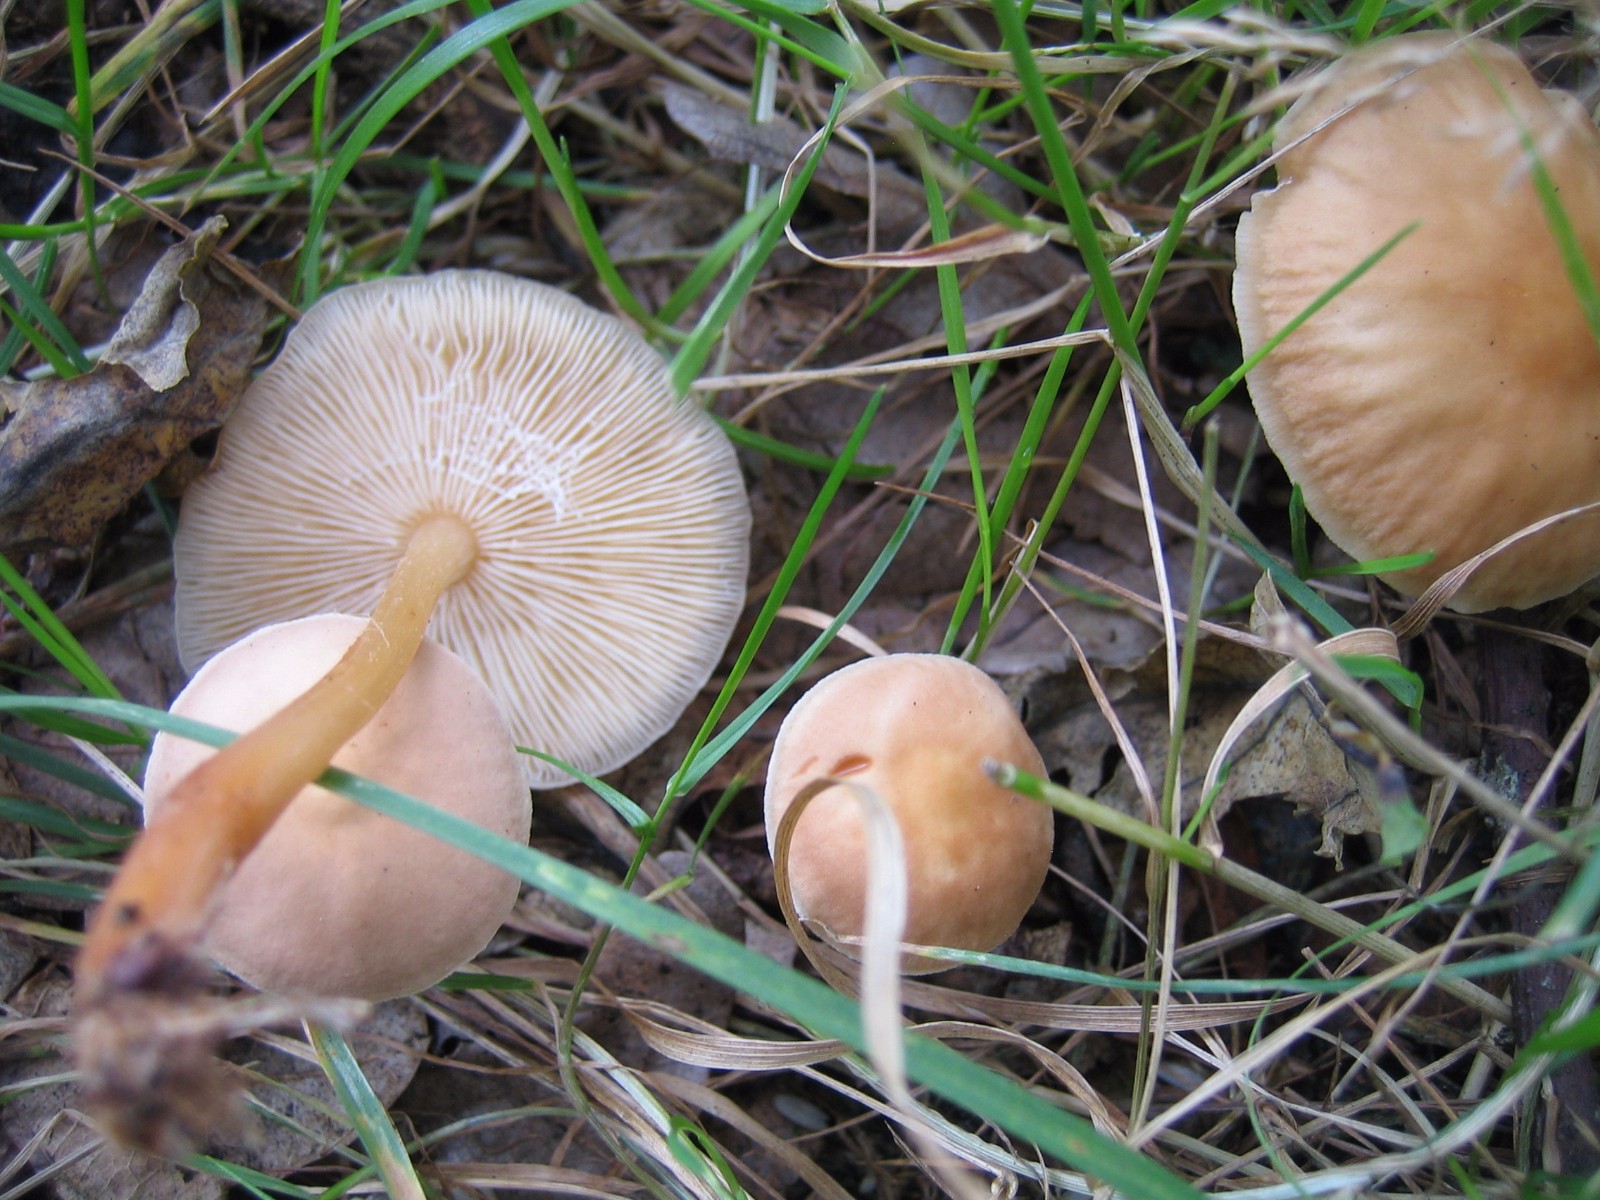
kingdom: Fungi
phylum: Basidiomycota
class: Agaricomycetes
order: Agaricales
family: Omphalotaceae
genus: Gymnopus
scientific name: Gymnopus dryophilus
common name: løv-fladhat
